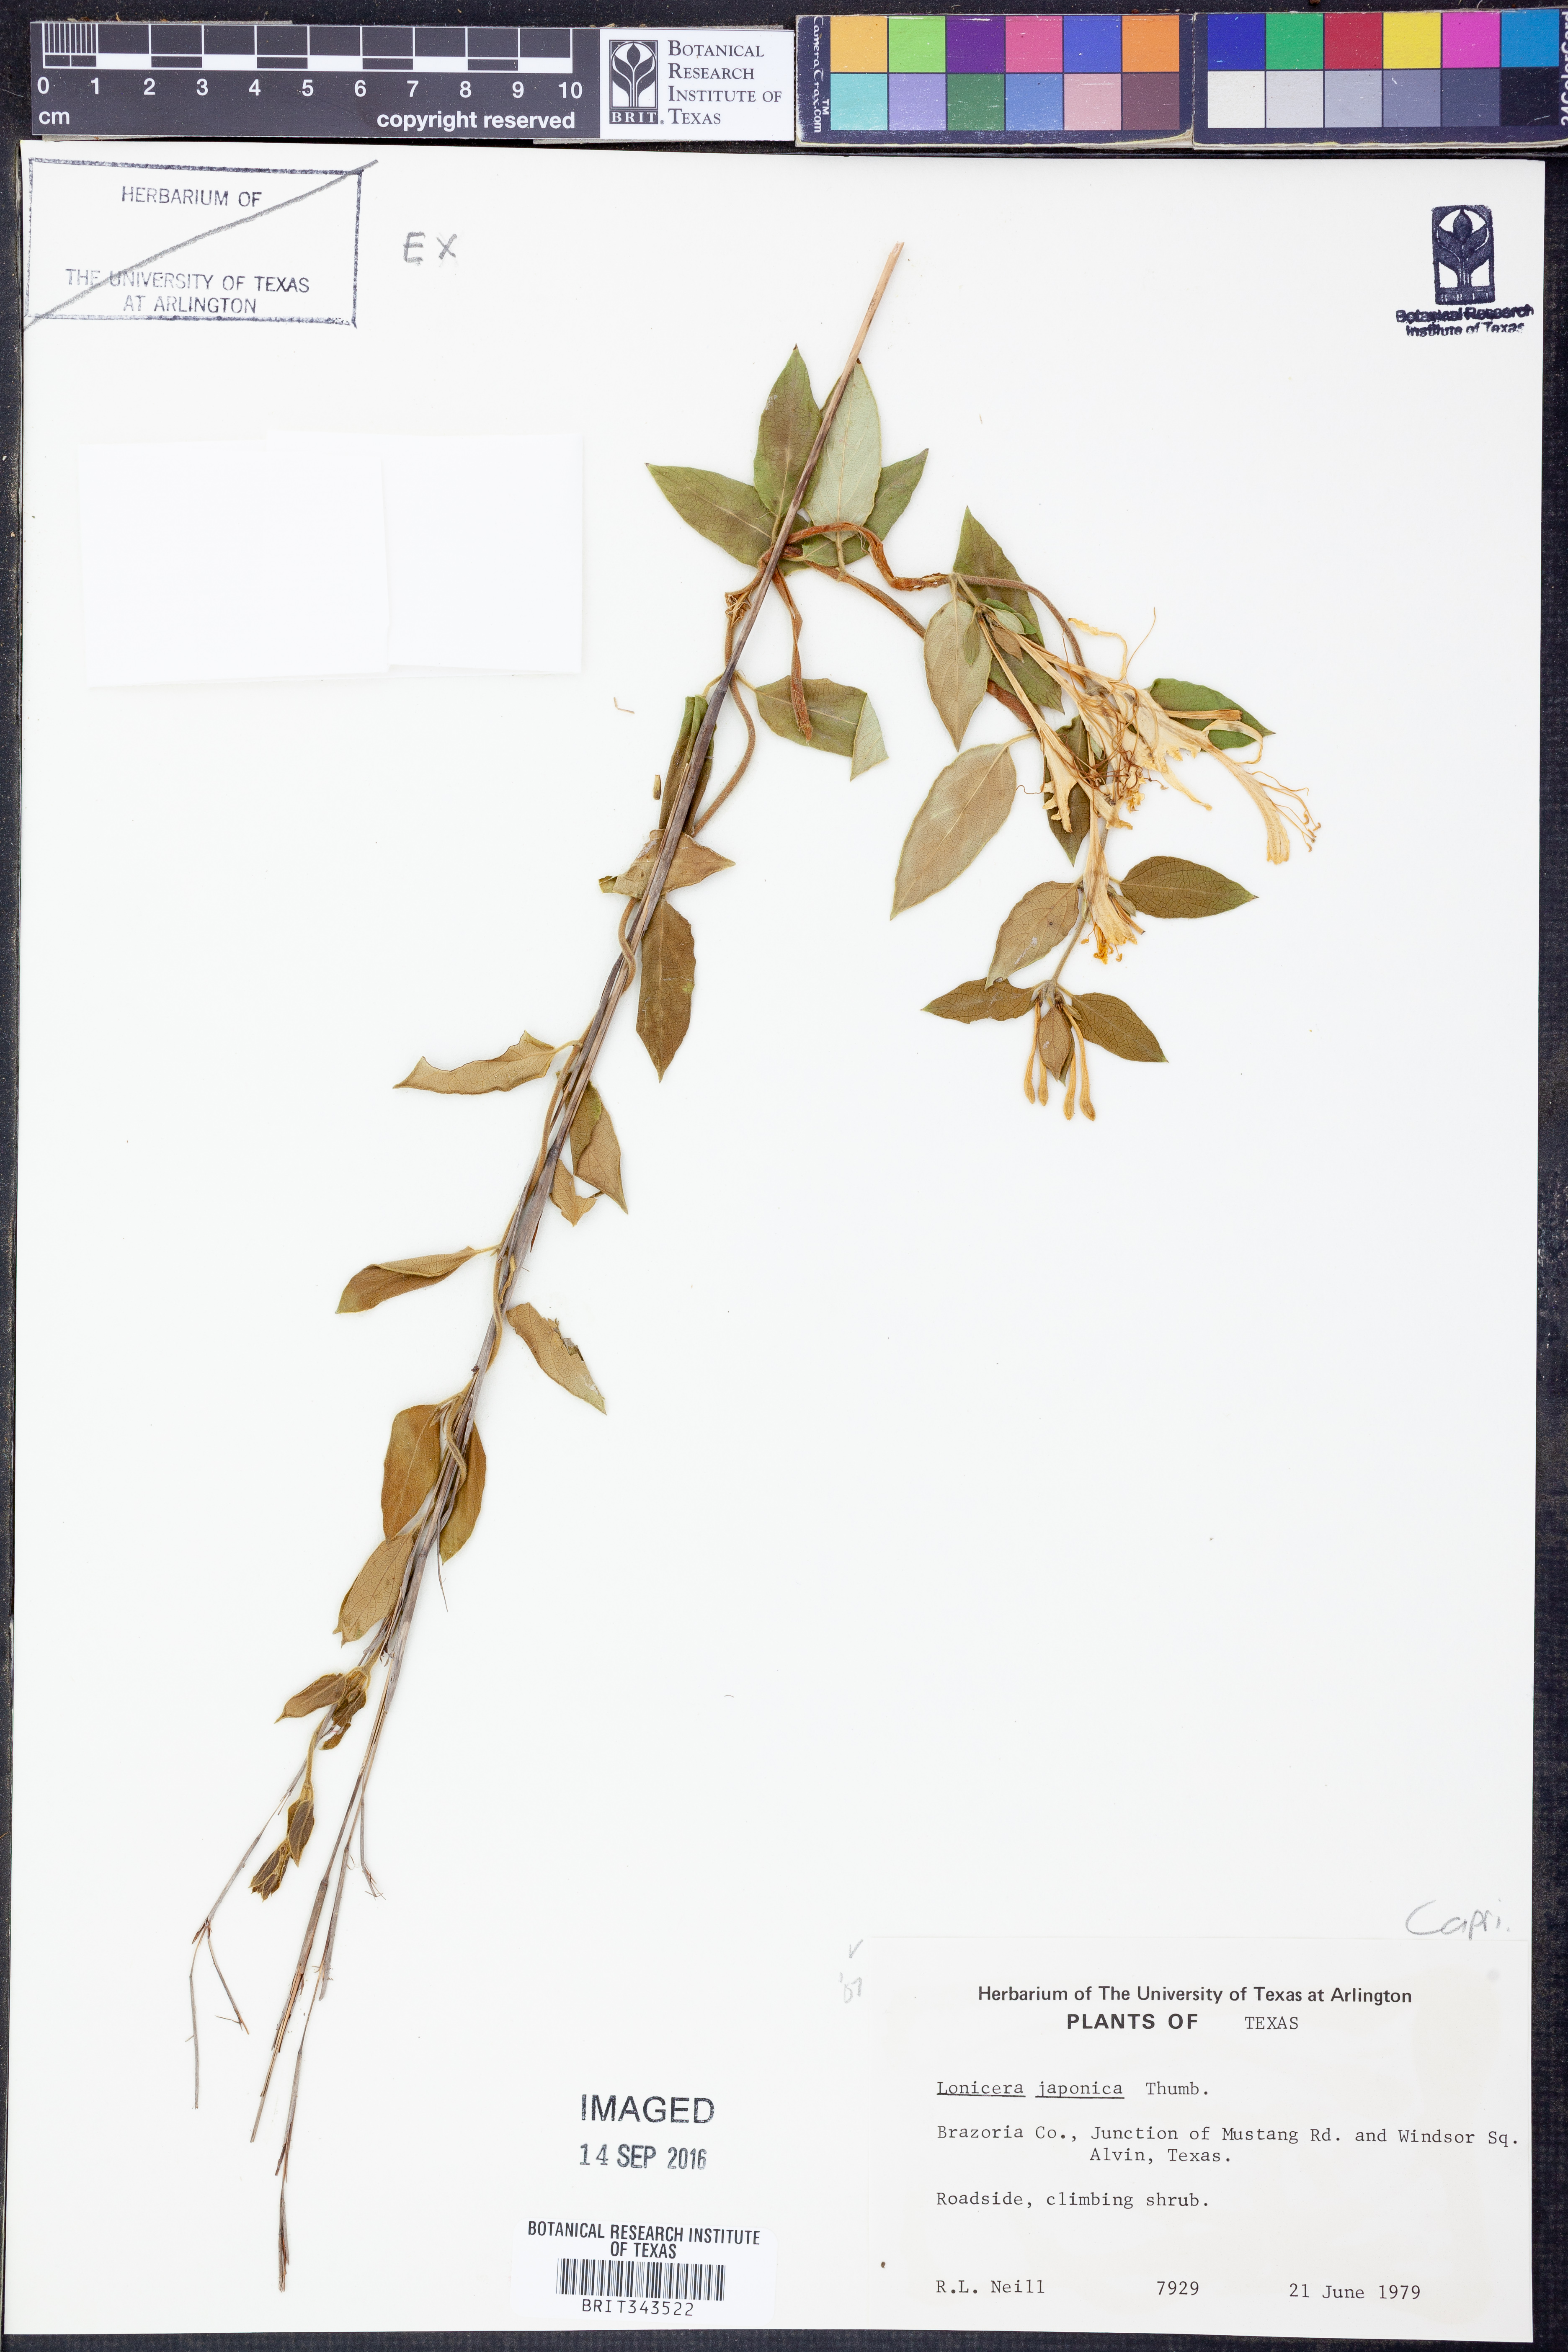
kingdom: Plantae
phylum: Tracheophyta
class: Magnoliopsida
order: Dipsacales
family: Caprifoliaceae
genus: Lonicera
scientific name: Lonicera japonica
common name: Japanese honeysuckle
